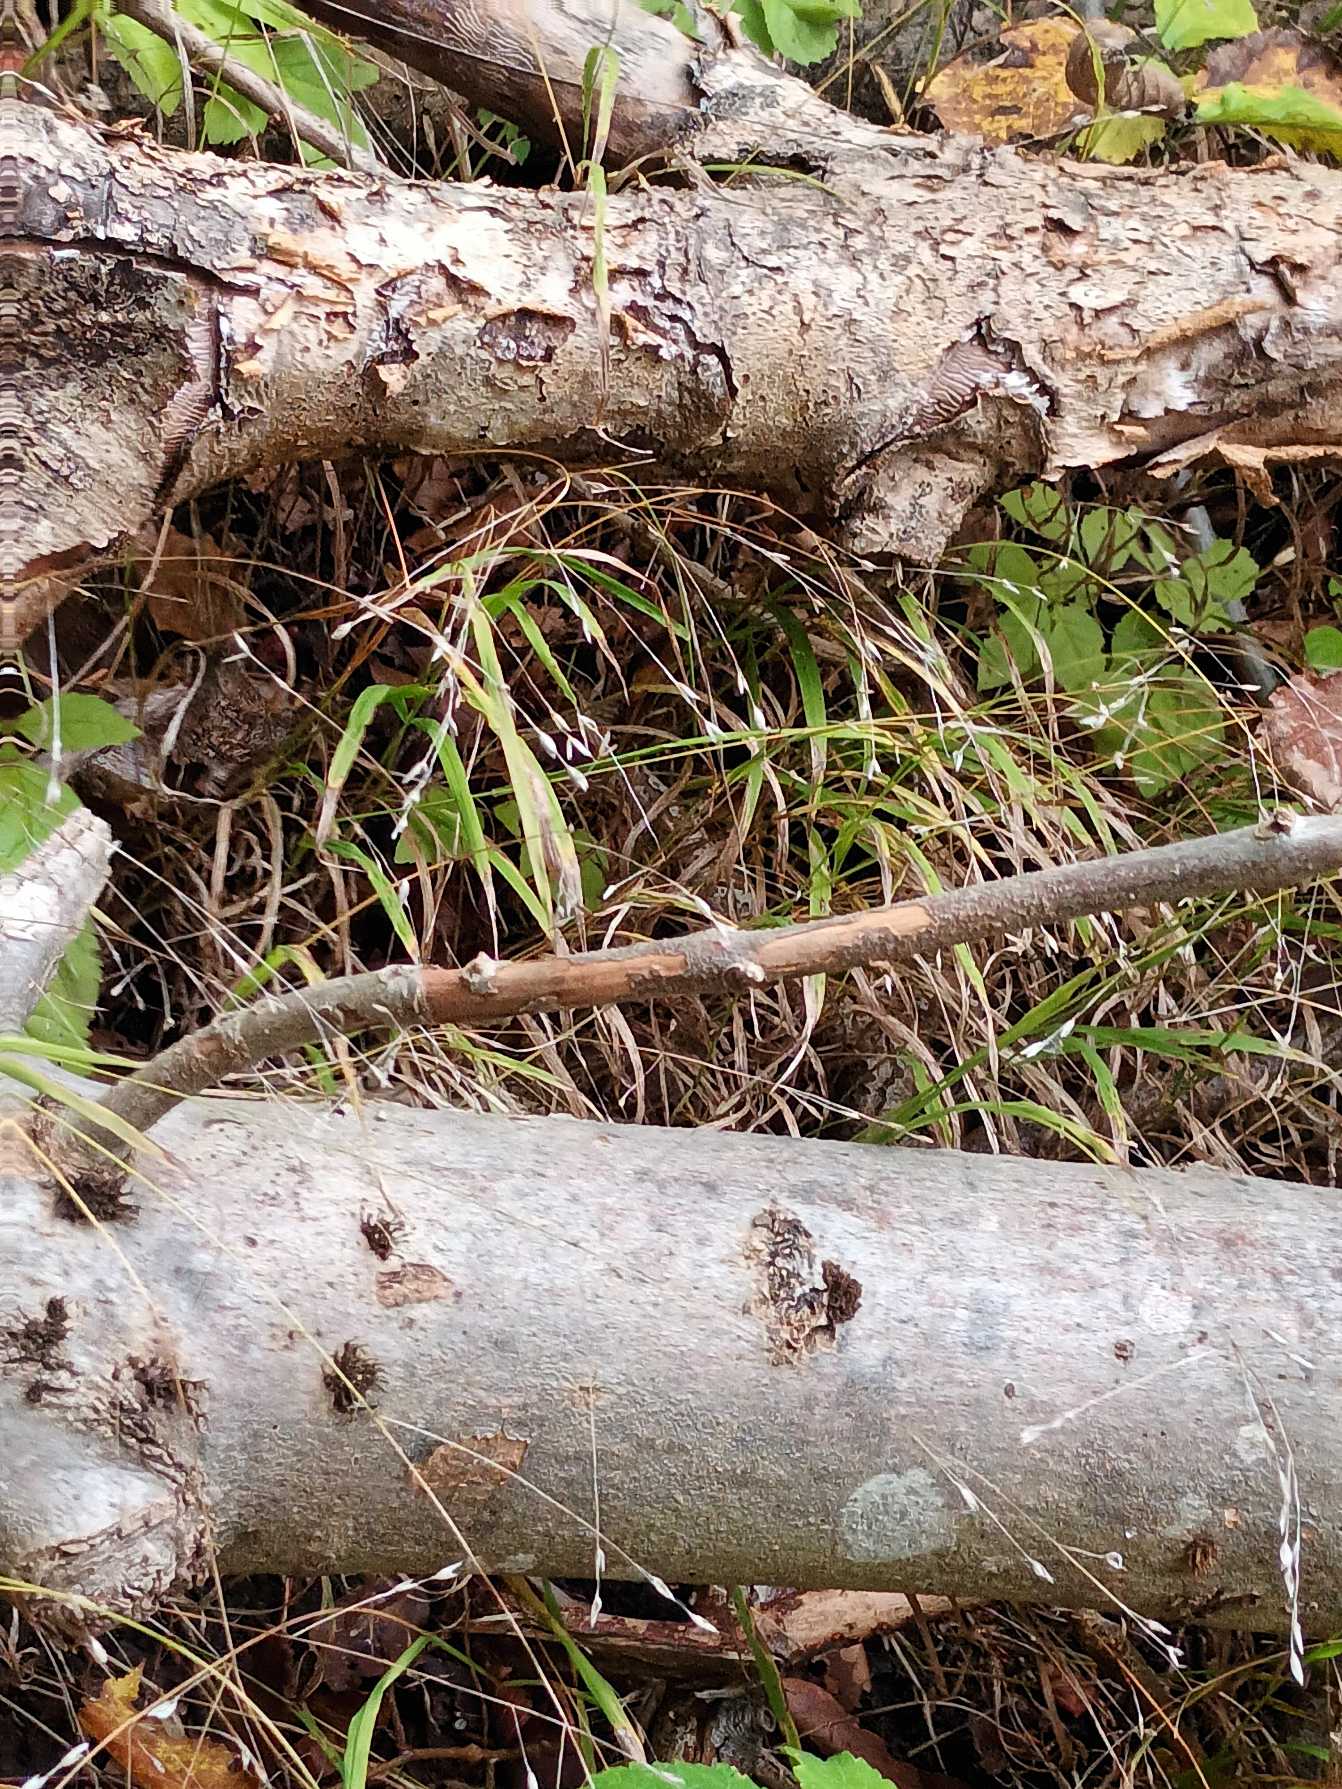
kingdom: Plantae
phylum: Tracheophyta
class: Liliopsida
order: Poales
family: Poaceae
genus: Melica
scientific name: Melica uniflora
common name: Enblomstret flitteraks
